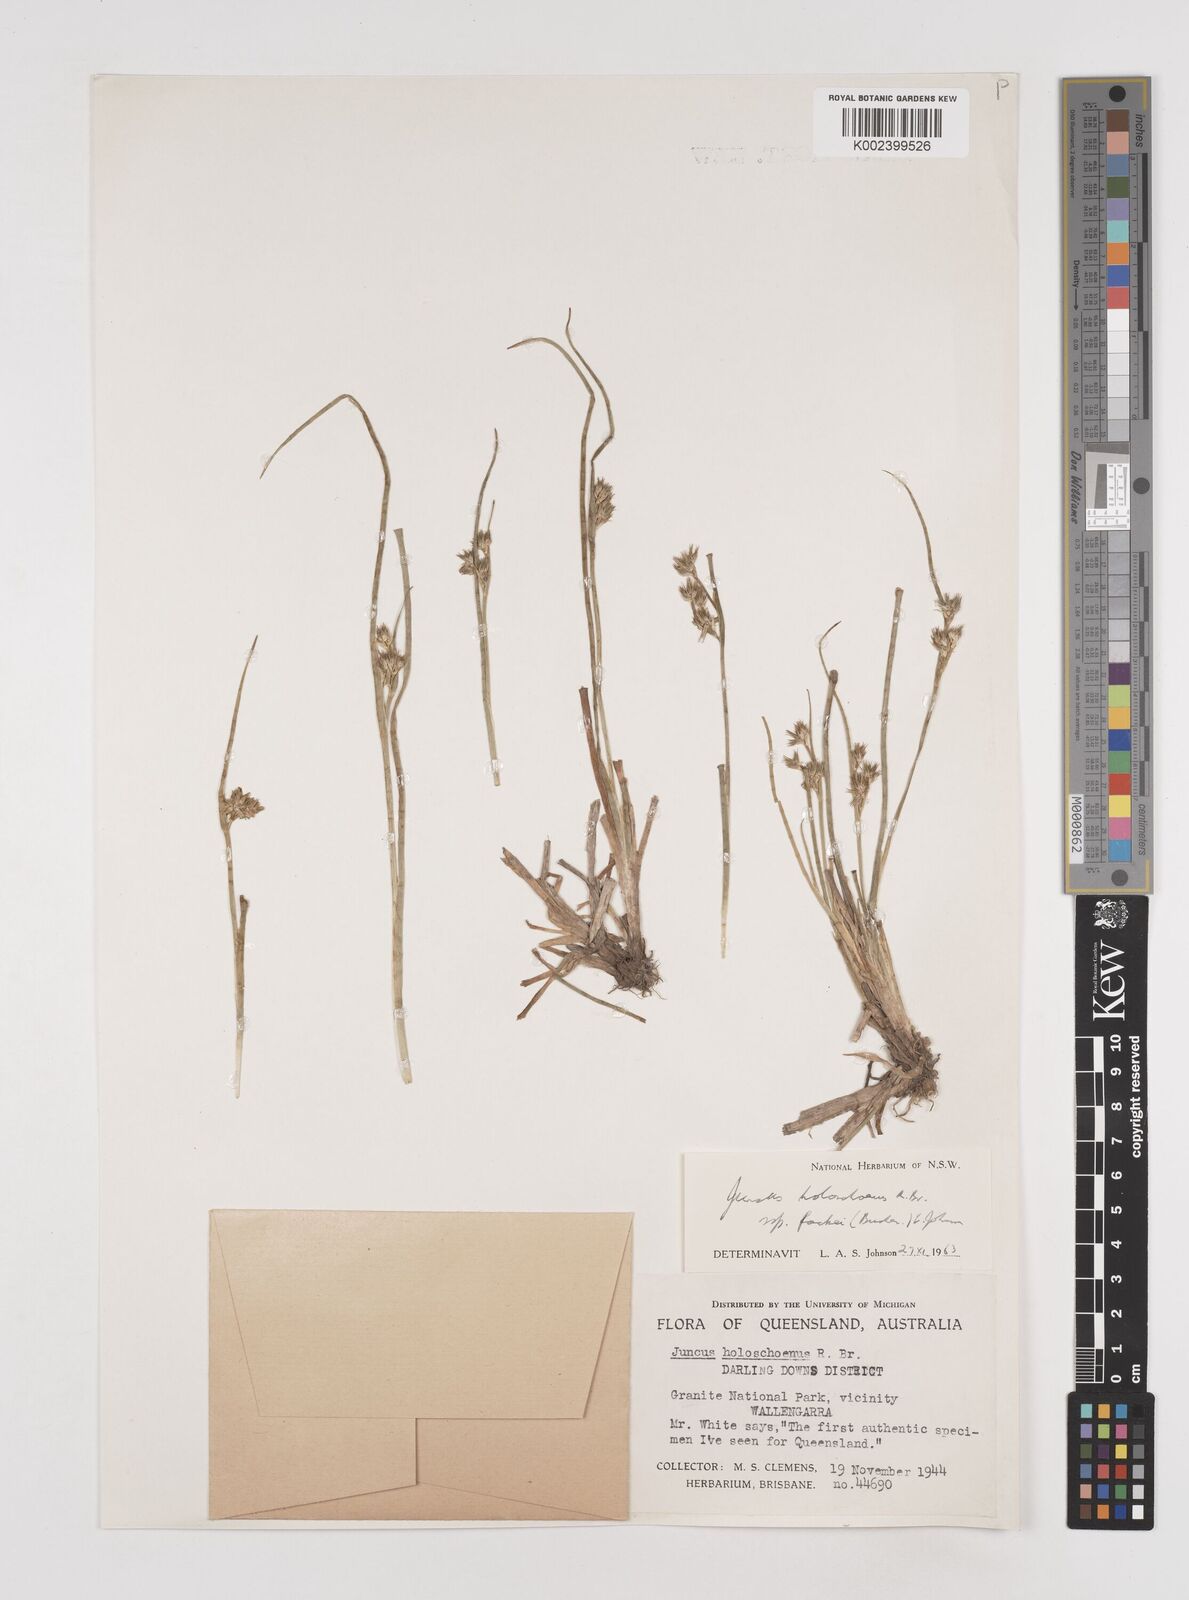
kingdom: Plantae
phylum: Tracheophyta
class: Liliopsida
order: Poales
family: Juncaceae
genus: Juncus
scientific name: Juncus fockei
